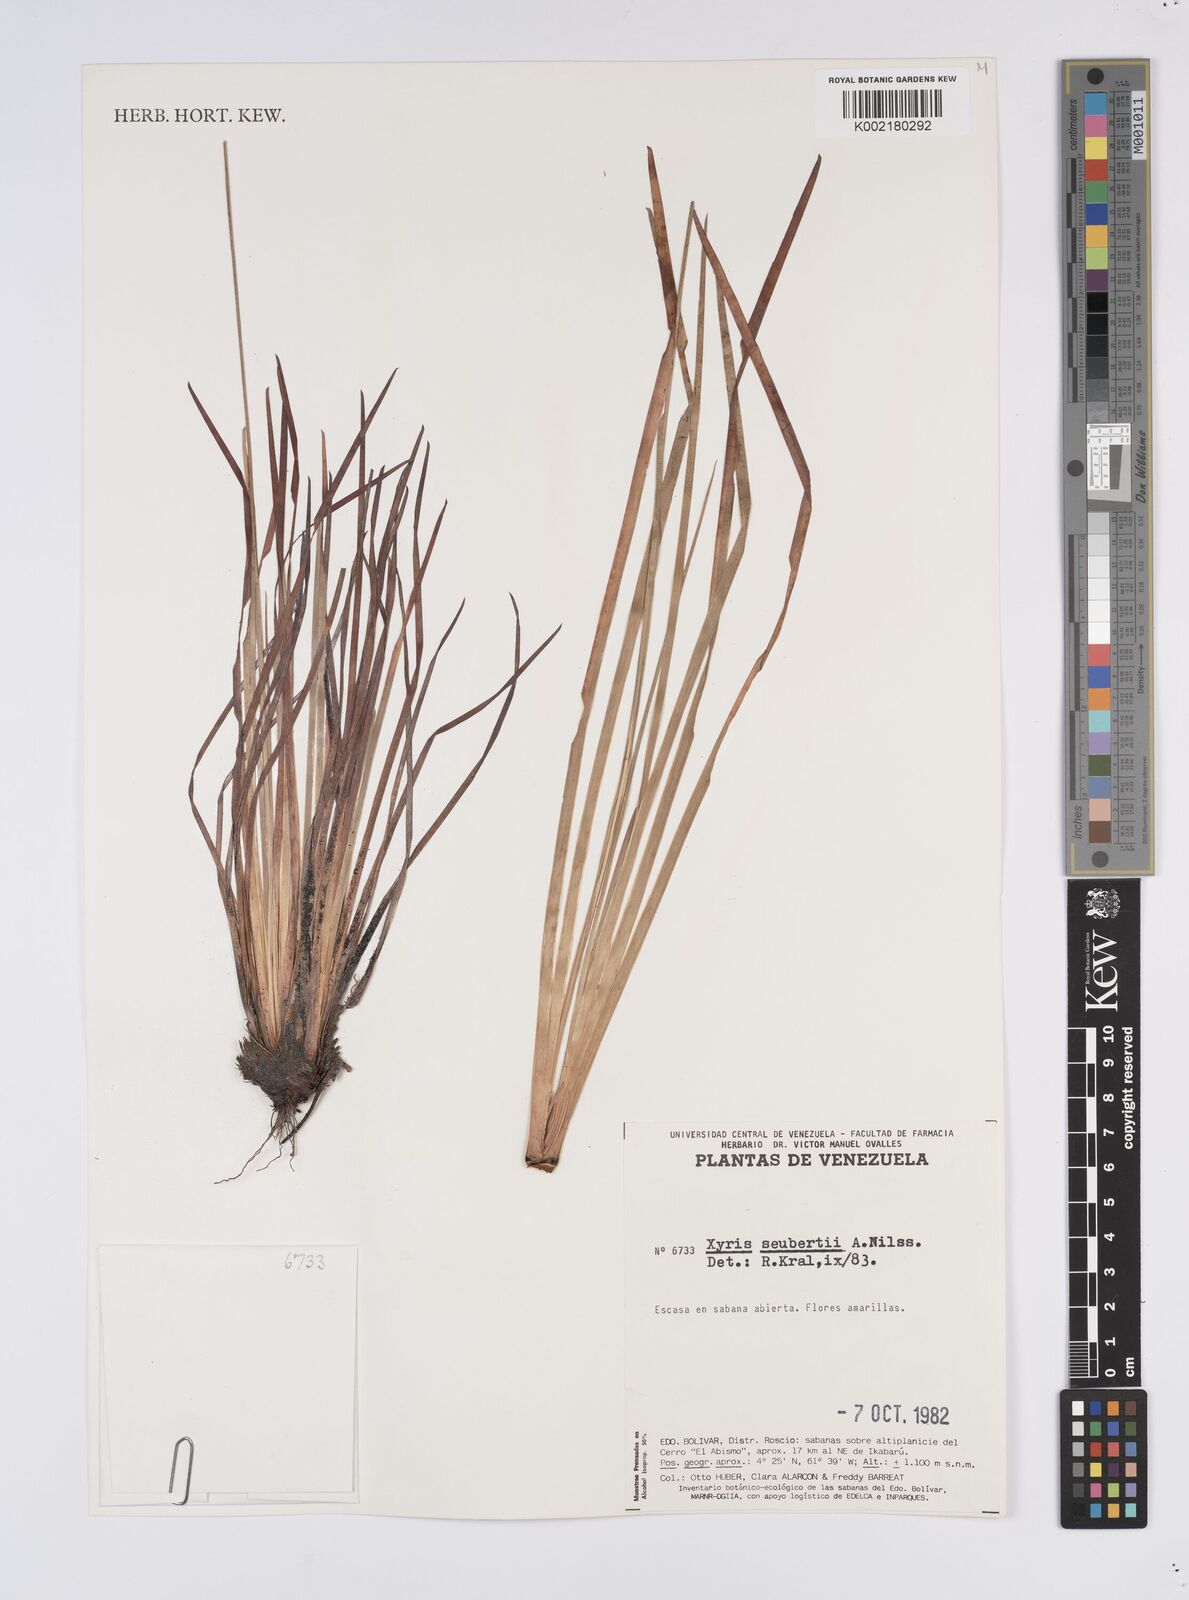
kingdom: Plantae
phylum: Tracheophyta
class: Liliopsida
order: Poales
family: Xyridaceae
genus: Xyris
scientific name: Xyris seubertii
